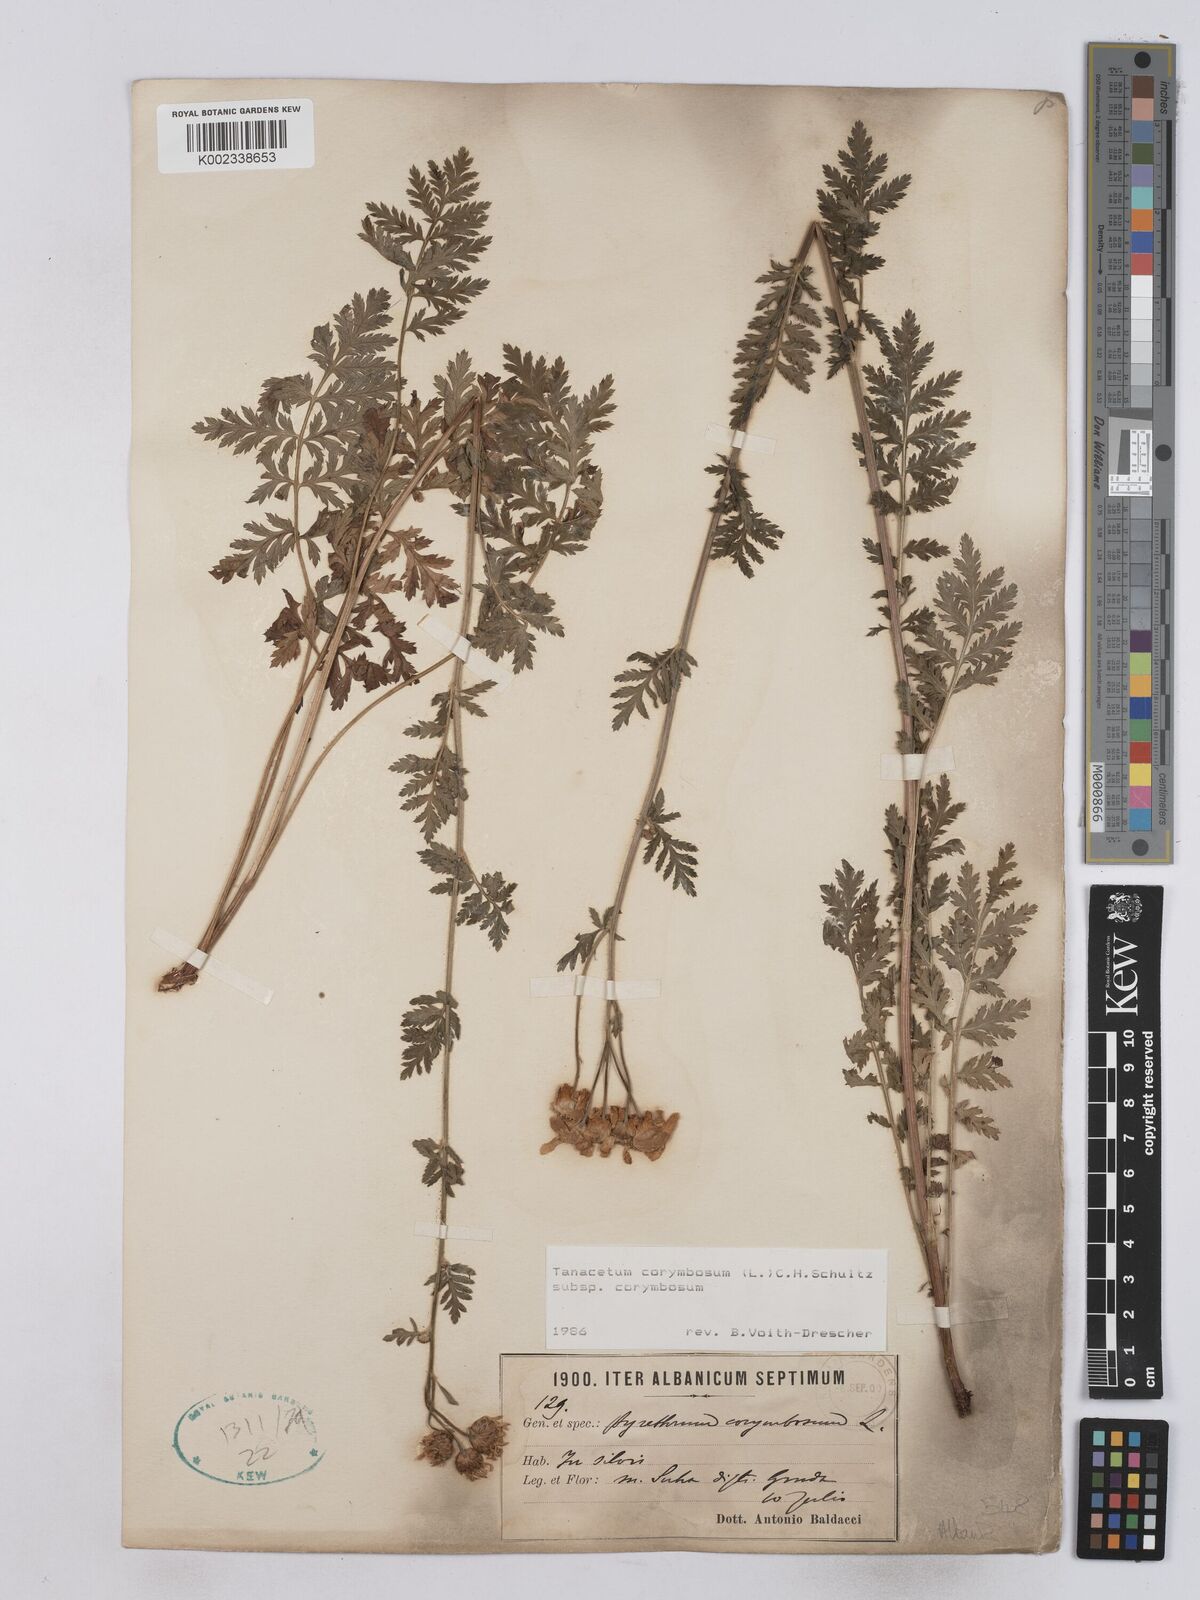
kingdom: Plantae
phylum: Tracheophyta
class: Magnoliopsida
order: Asterales
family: Asteraceae
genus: Tanacetum
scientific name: Tanacetum corymbosum
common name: Scentless feverfew
